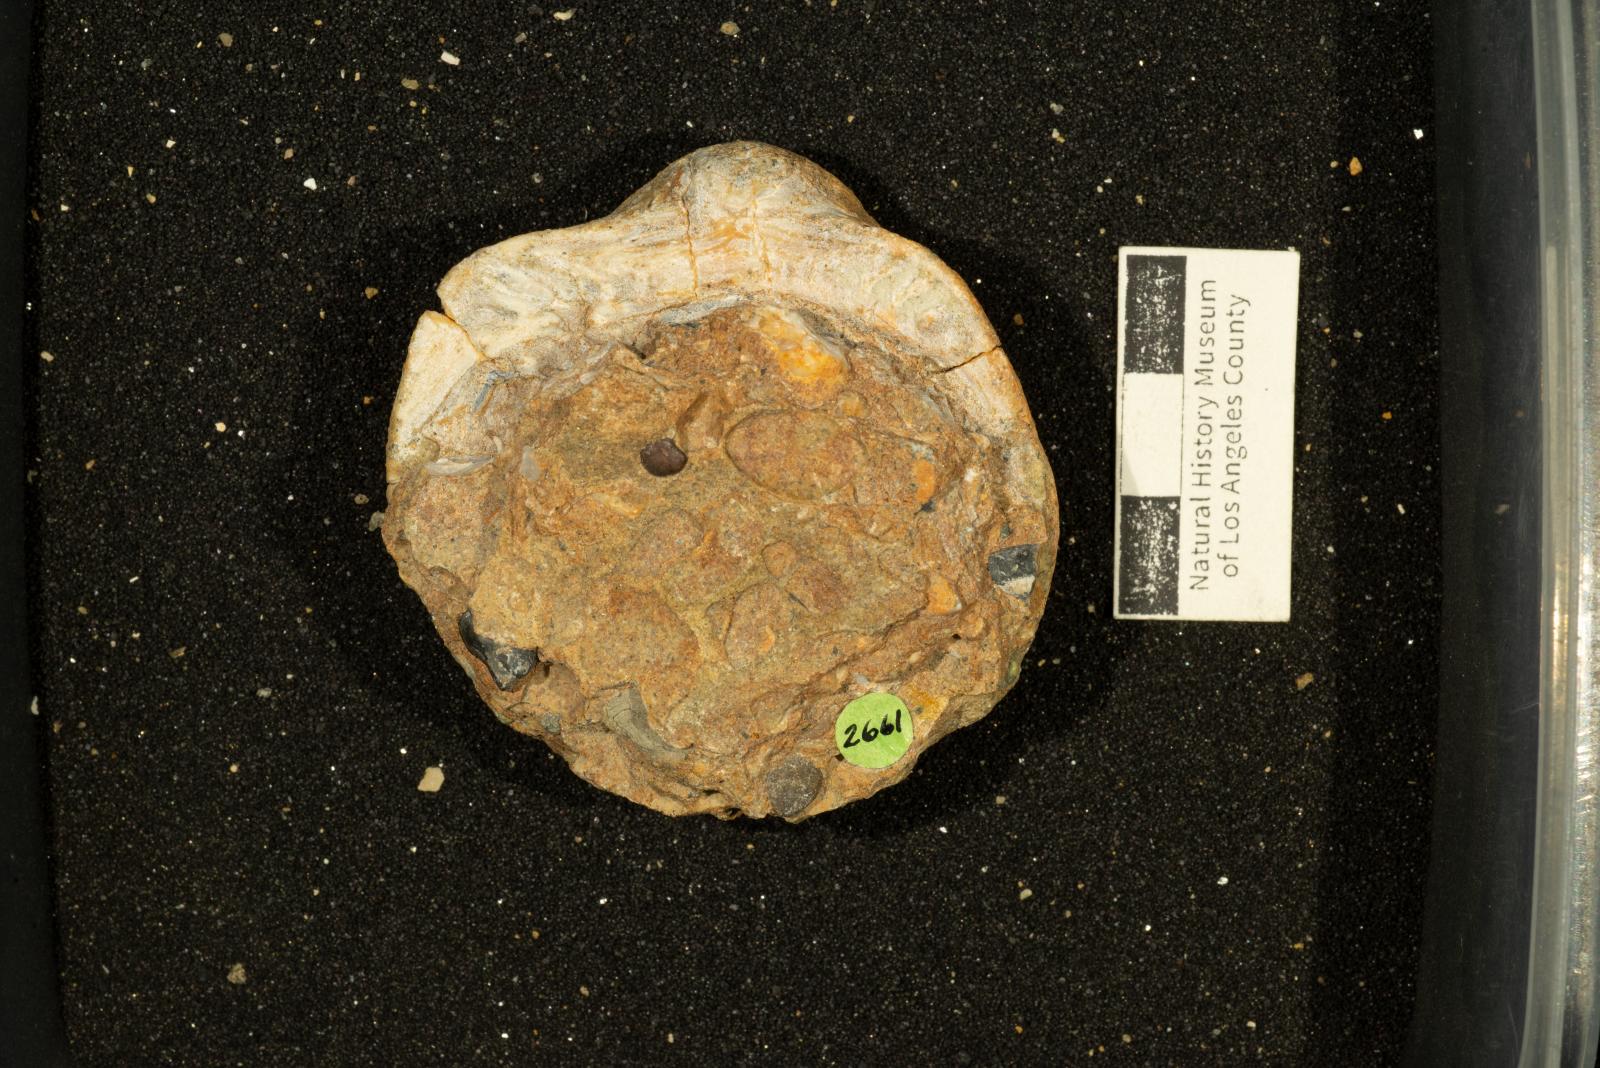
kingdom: Animalia
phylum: Mollusca
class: Bivalvia
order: Arcida
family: Glycymerididae
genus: Glycymerita
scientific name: Glycymerita Glycymeris banosensis
